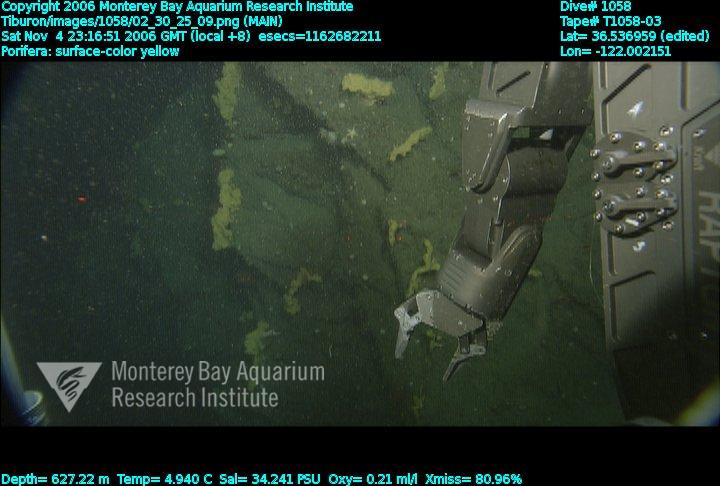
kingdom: Animalia
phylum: Porifera
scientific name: Porifera
